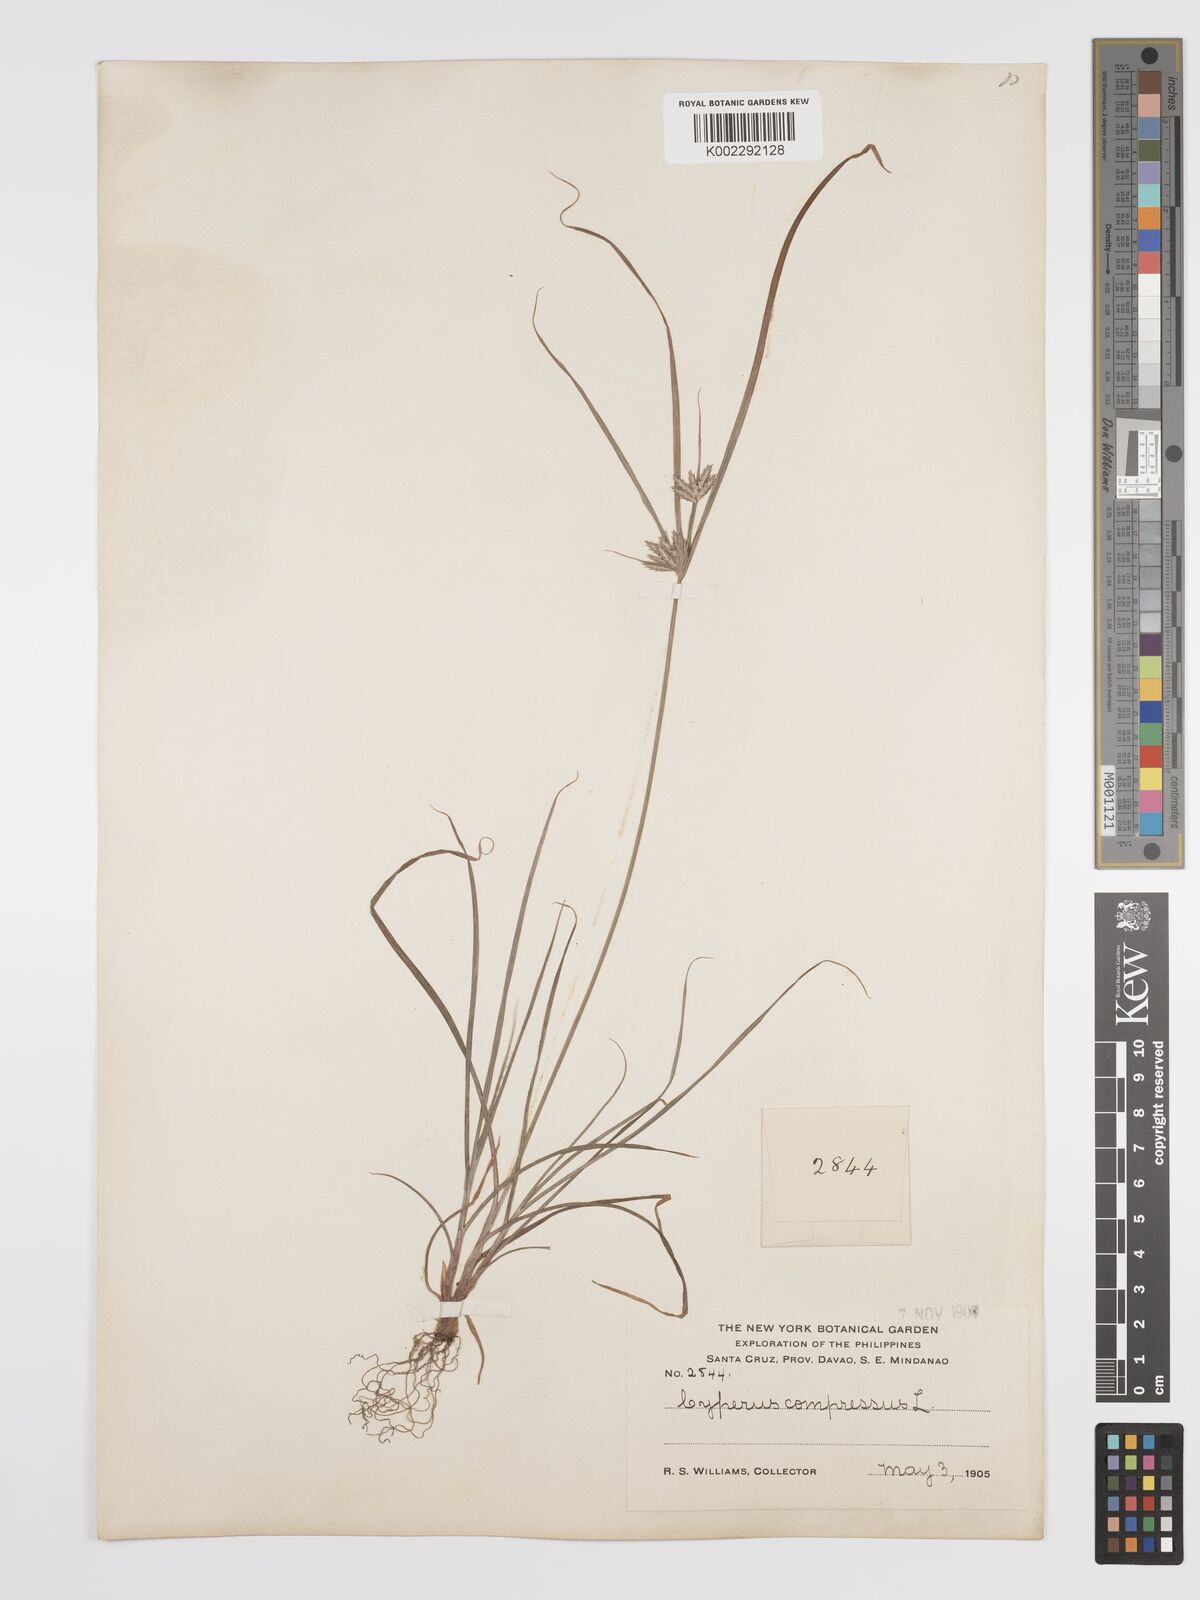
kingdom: Plantae
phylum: Tracheophyta
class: Liliopsida
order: Poales
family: Cyperaceae
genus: Cyperus
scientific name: Cyperus compressus
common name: Poorland flatsedge
